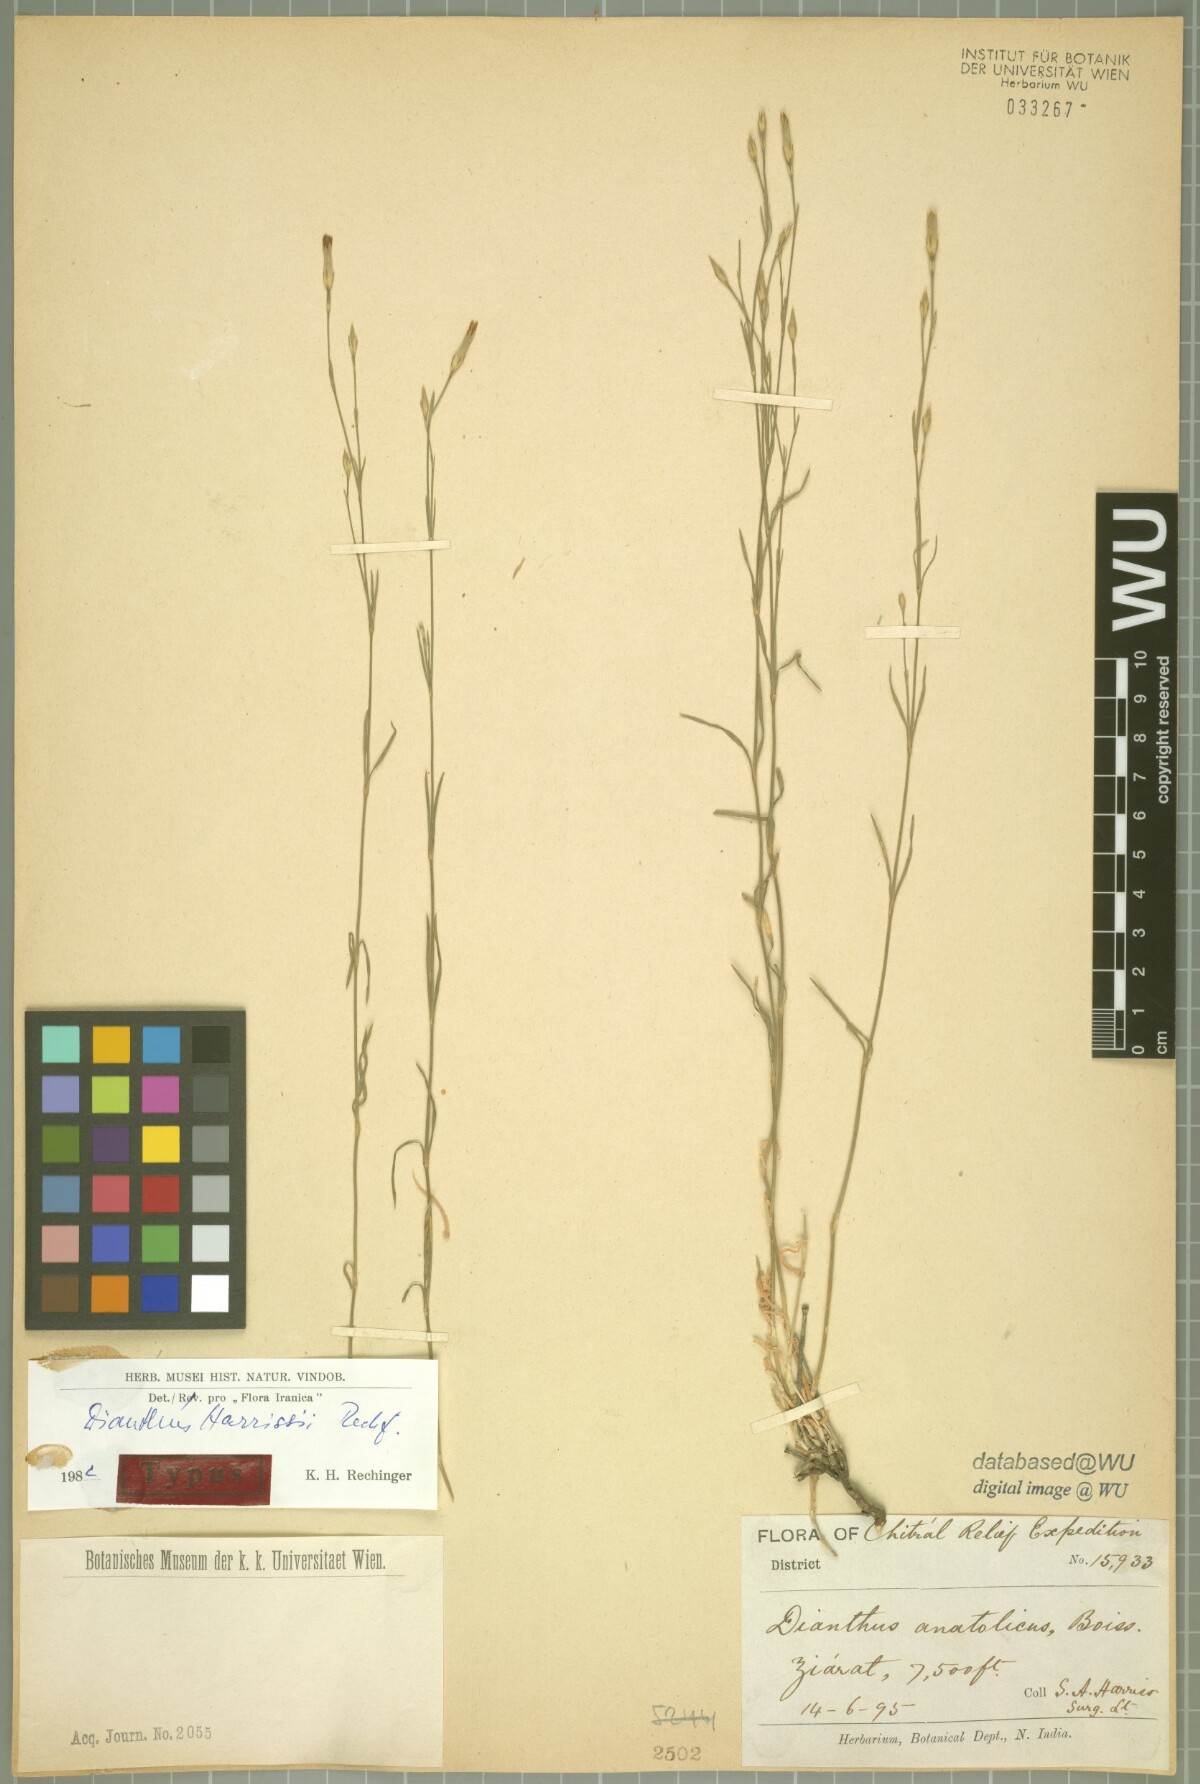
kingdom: Plantae
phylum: Tracheophyta
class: Magnoliopsida
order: Caryophyllales
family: Caryophyllaceae
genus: Dianthus
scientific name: Dianthus harrissii
